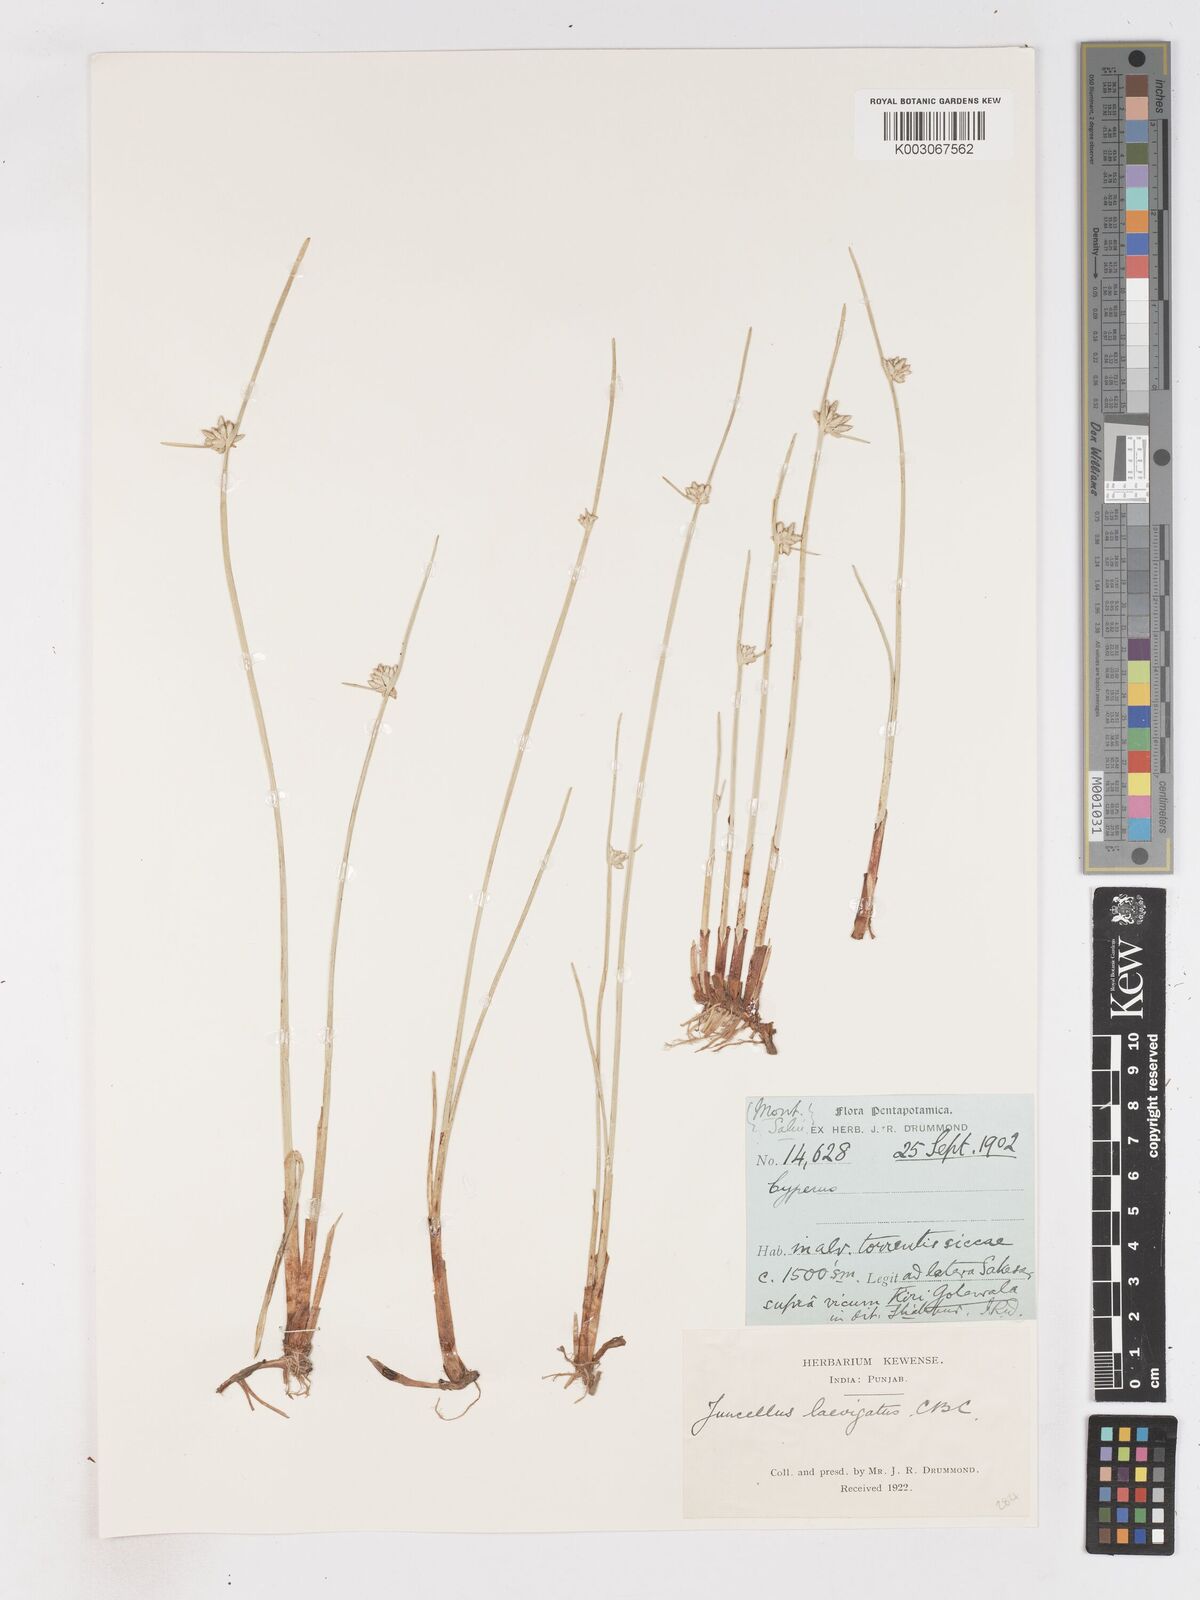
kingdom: Plantae
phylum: Tracheophyta
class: Liliopsida
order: Poales
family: Cyperaceae
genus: Cyperus
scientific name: Cyperus laevigatus
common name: Smooth flat sedge
